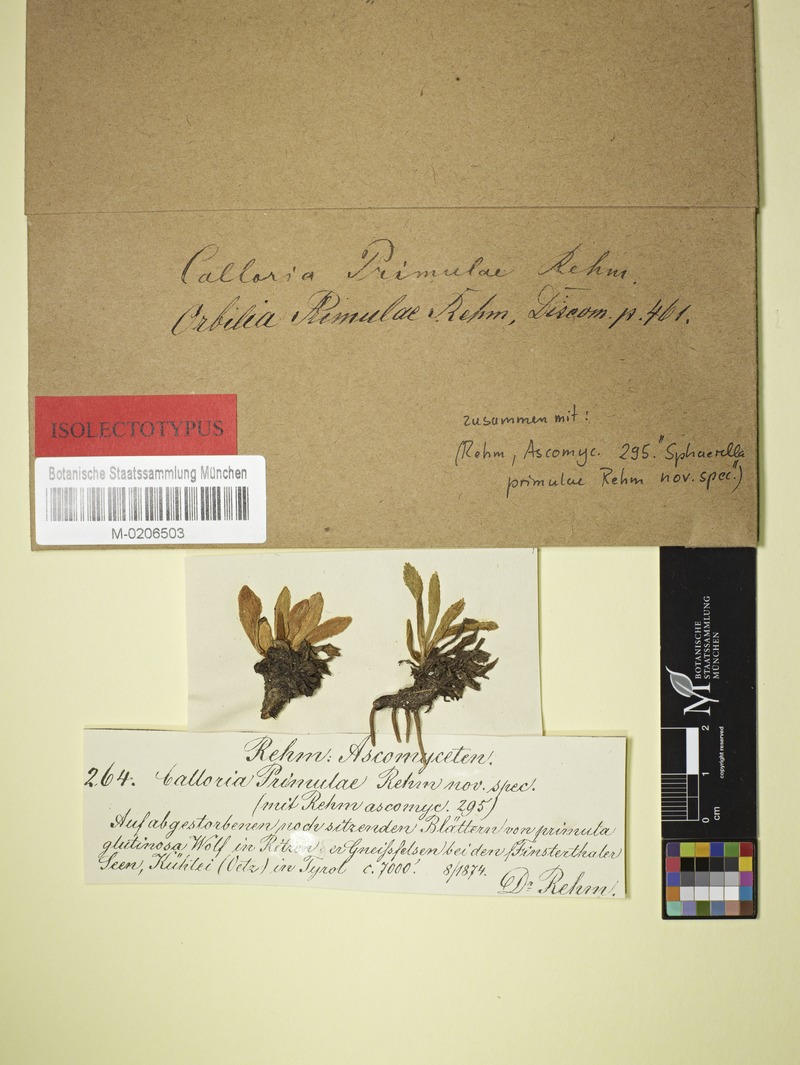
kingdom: Fungi
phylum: Ascomycota
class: Leotiomycetes
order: Helotiales
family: Calloriaceae
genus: Naeviopsis
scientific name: Naeviopsis primulae
